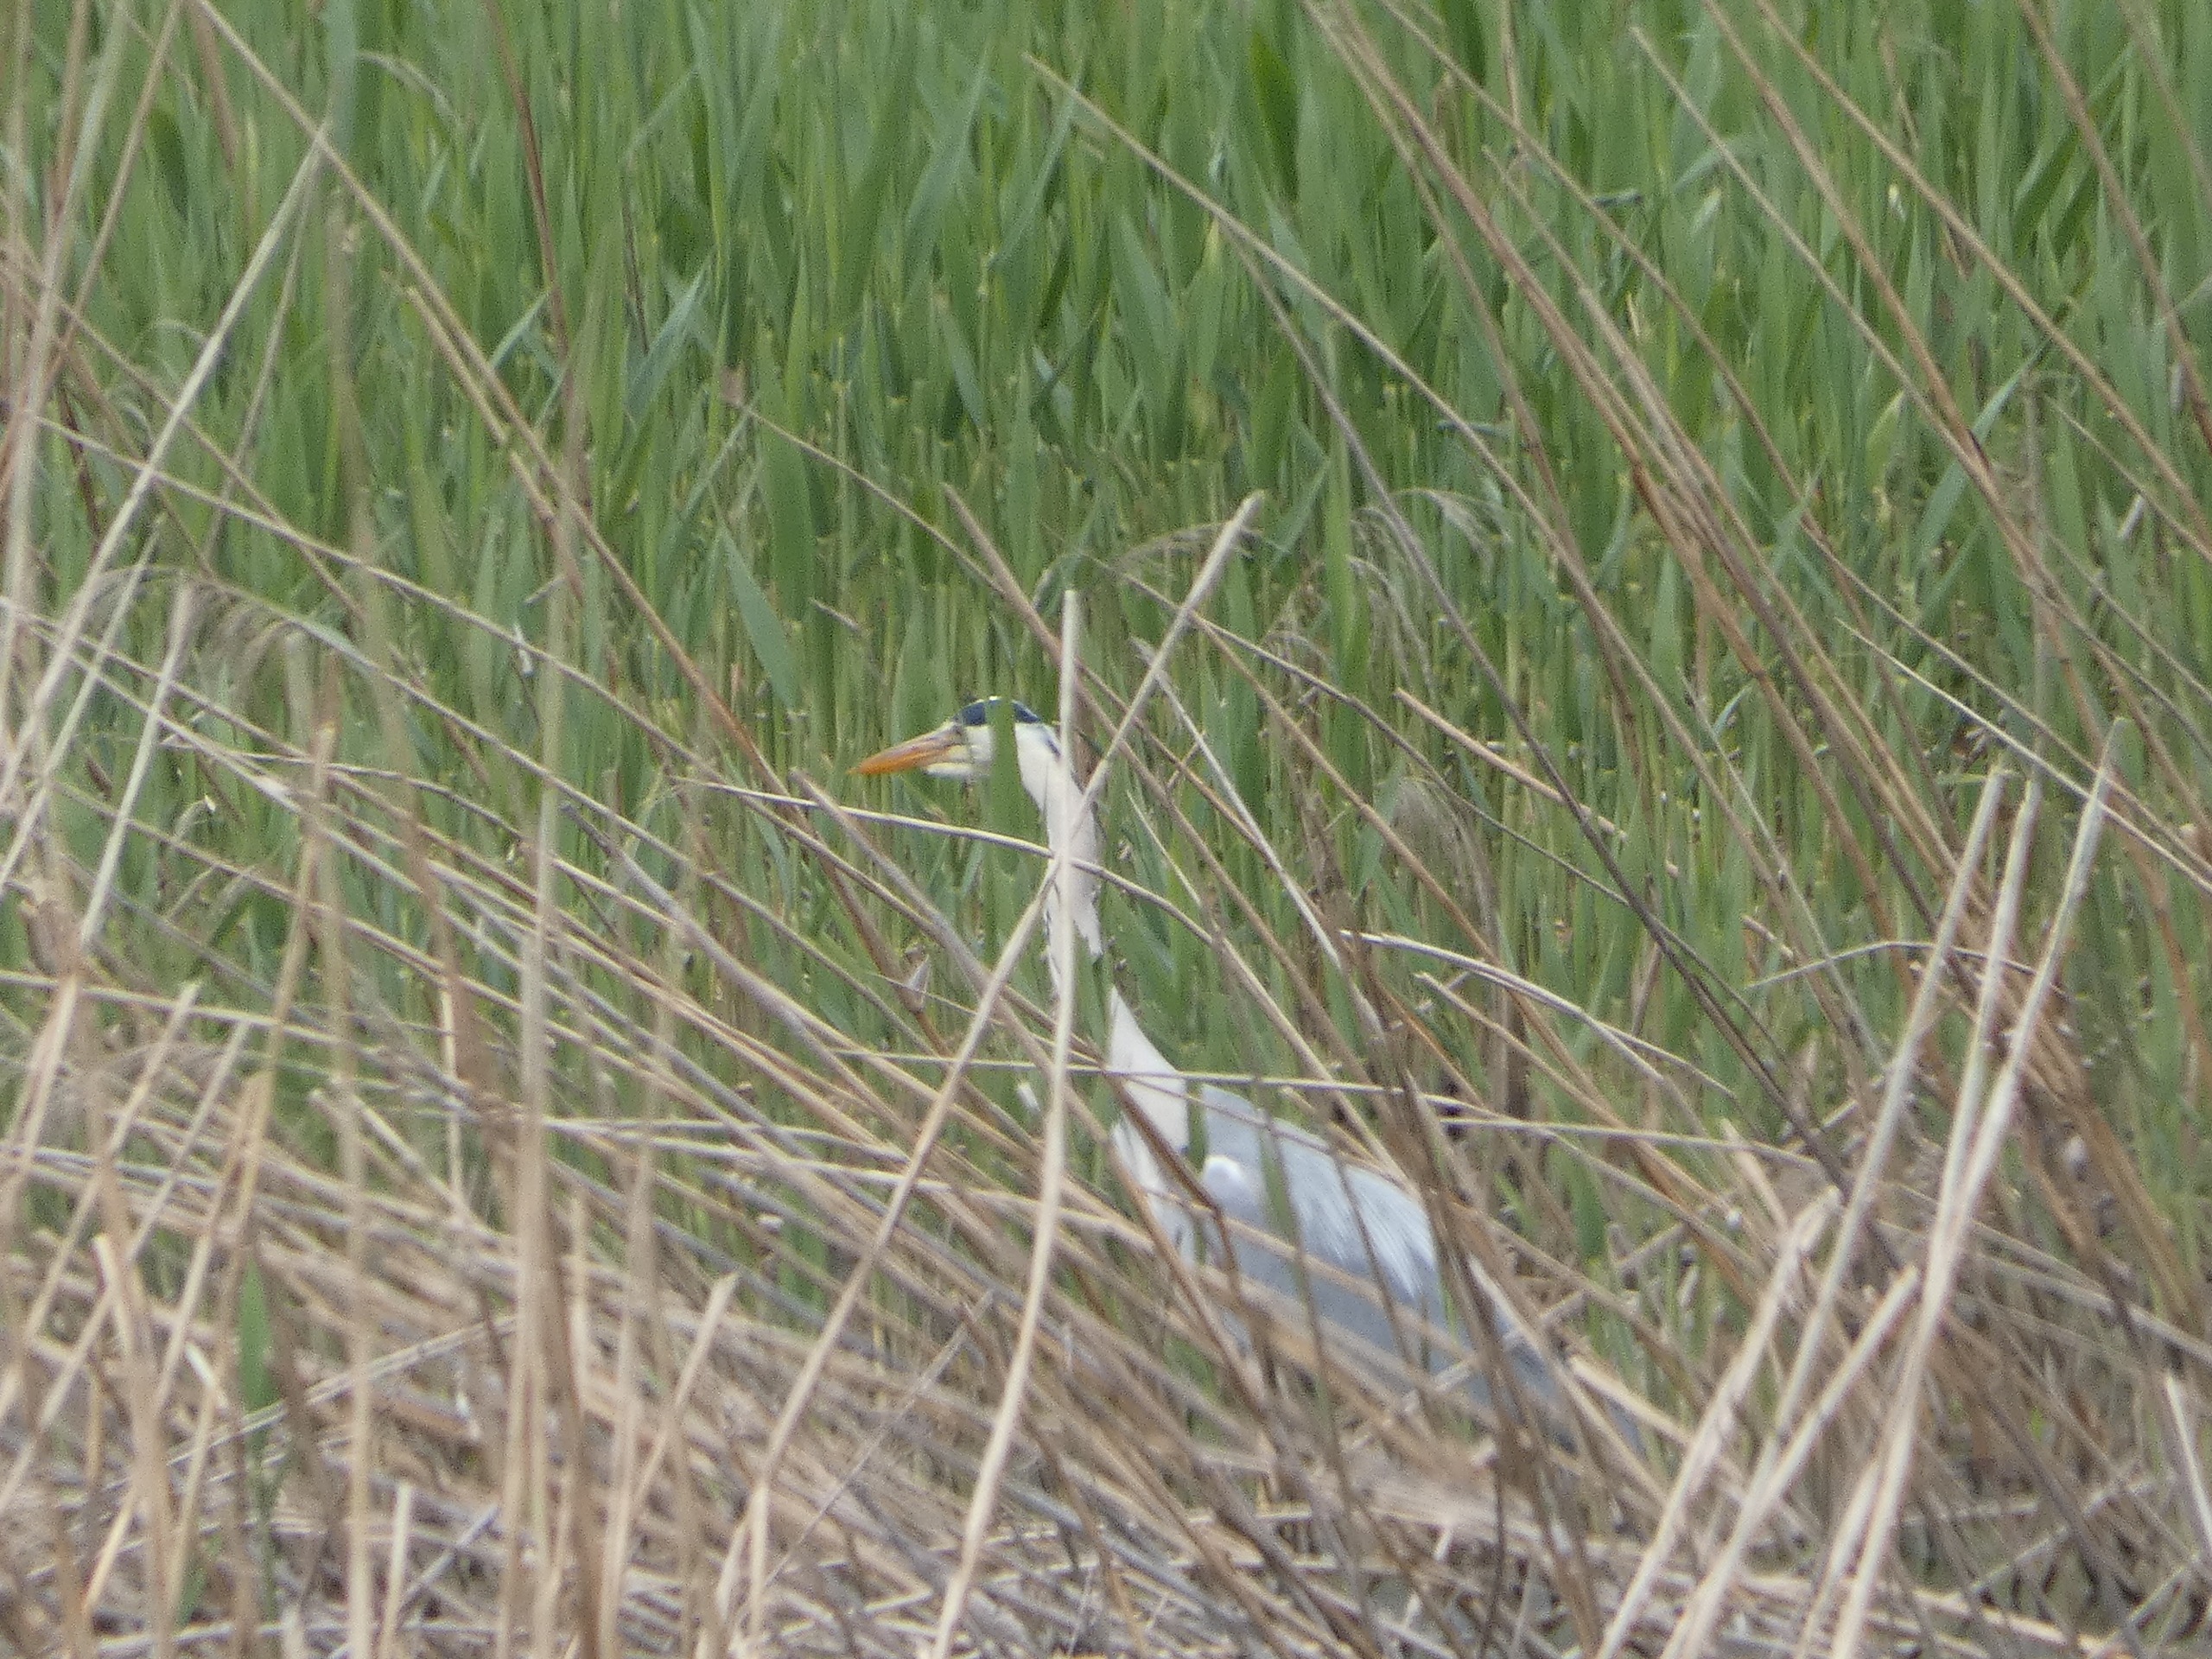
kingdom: Animalia
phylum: Chordata
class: Aves
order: Pelecaniformes
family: Ardeidae
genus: Ardea
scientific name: Ardea cinerea
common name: Fiskehejre
